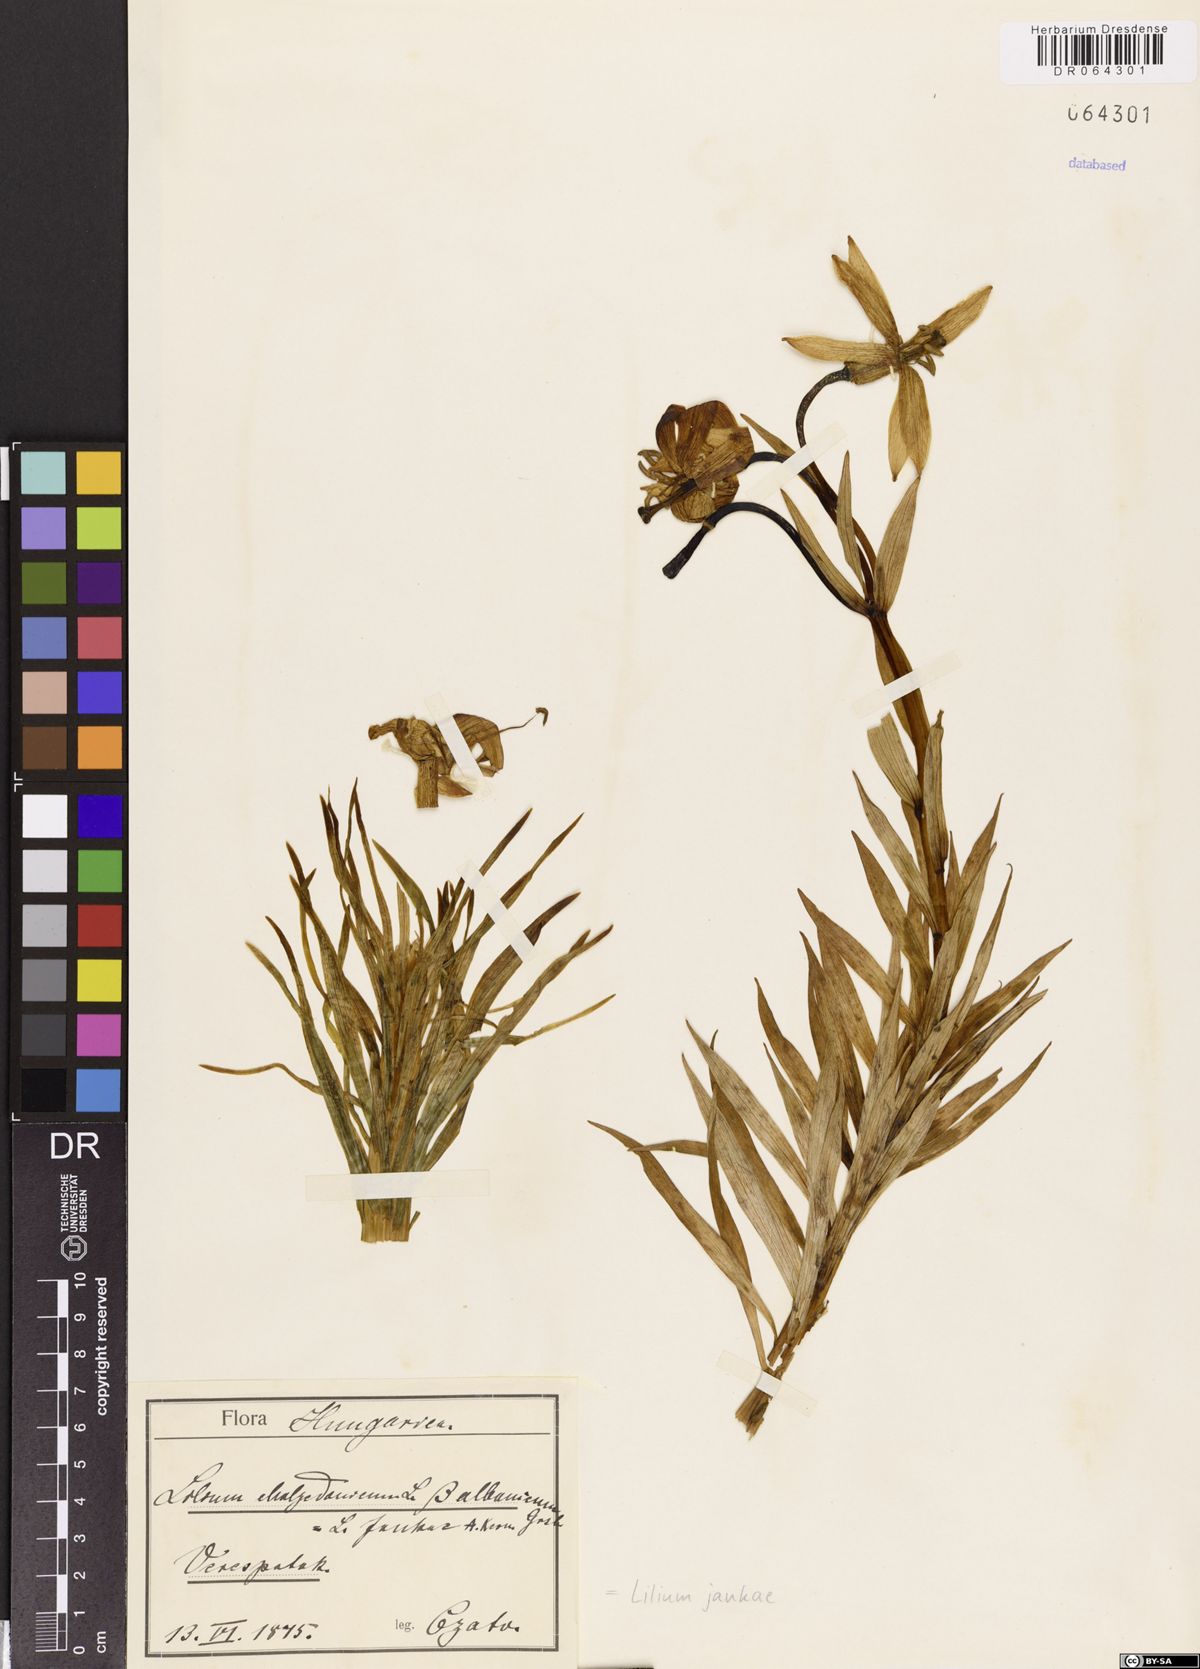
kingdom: Plantae
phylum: Tracheophyta
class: Liliopsida
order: Liliales
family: Liliaceae
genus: Lilium
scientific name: Lilium jankae
